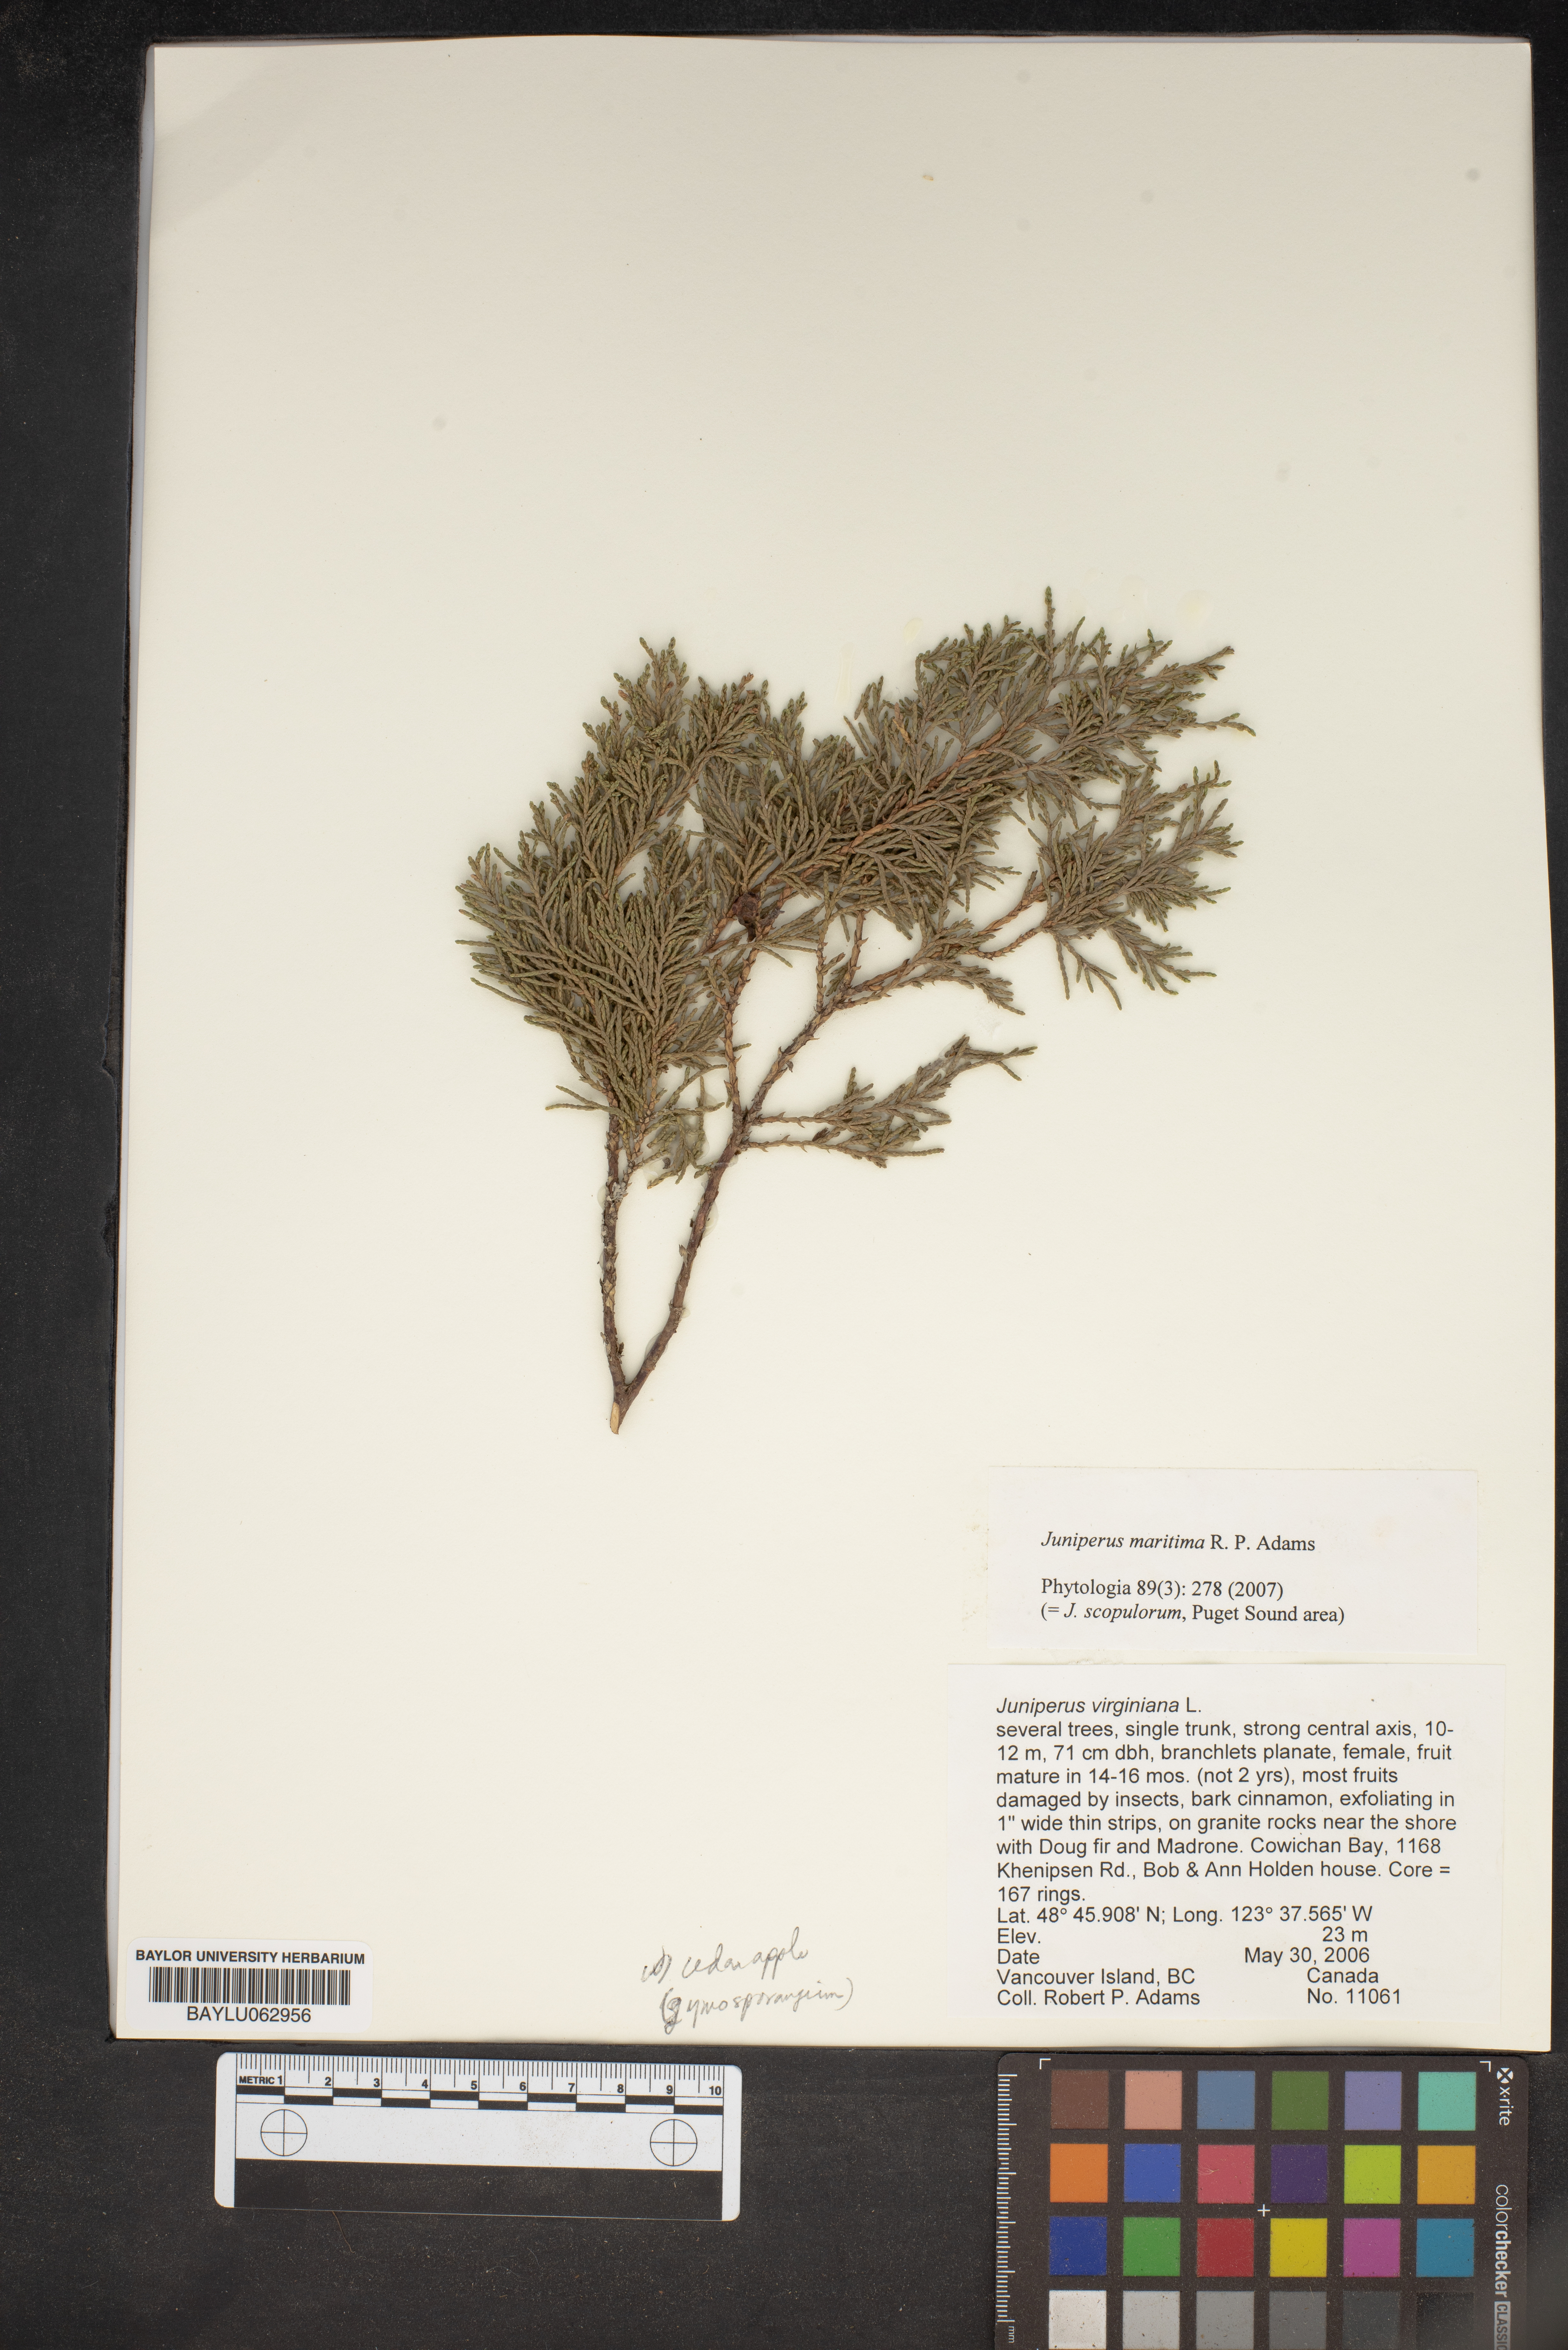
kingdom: Plantae
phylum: Tracheophyta
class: Pinopsida
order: Pinales
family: Cupressaceae
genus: Juniperus
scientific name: Juniperus scopulorum
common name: Rocky mountain juniper
